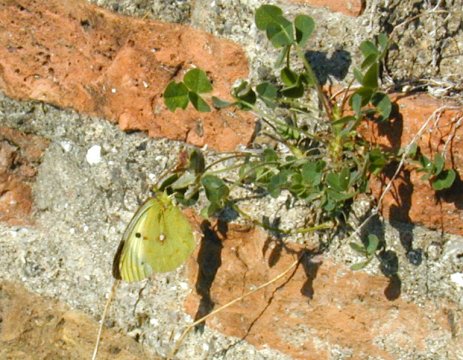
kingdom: Animalia
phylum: Arthropoda
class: Insecta
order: Lepidoptera
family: Pieridae
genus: Colias
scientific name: Colias croceus
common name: Clouded Yellow
